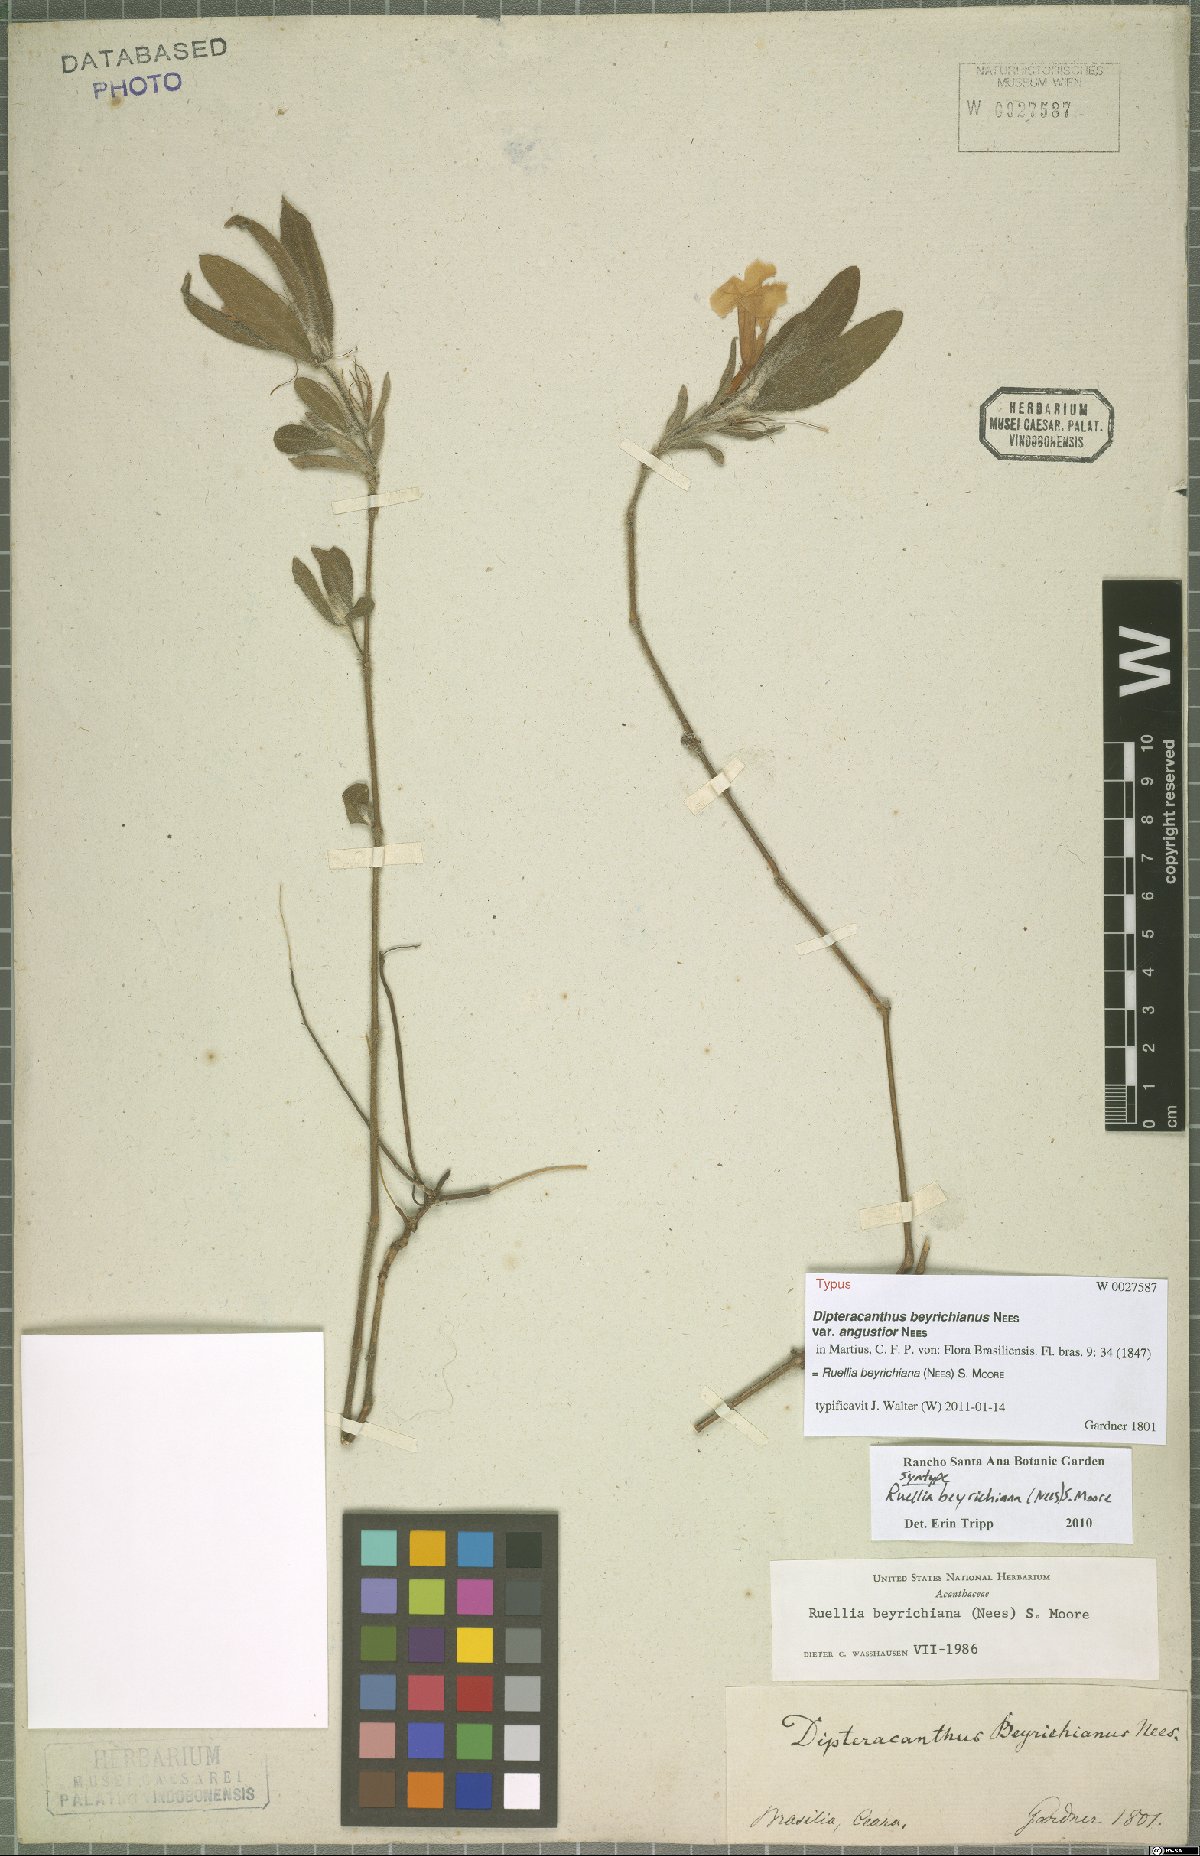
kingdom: Plantae
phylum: Tracheophyta
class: Magnoliopsida
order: Lamiales
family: Acanthaceae
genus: Ruellia
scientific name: Ruellia beyrichiana
